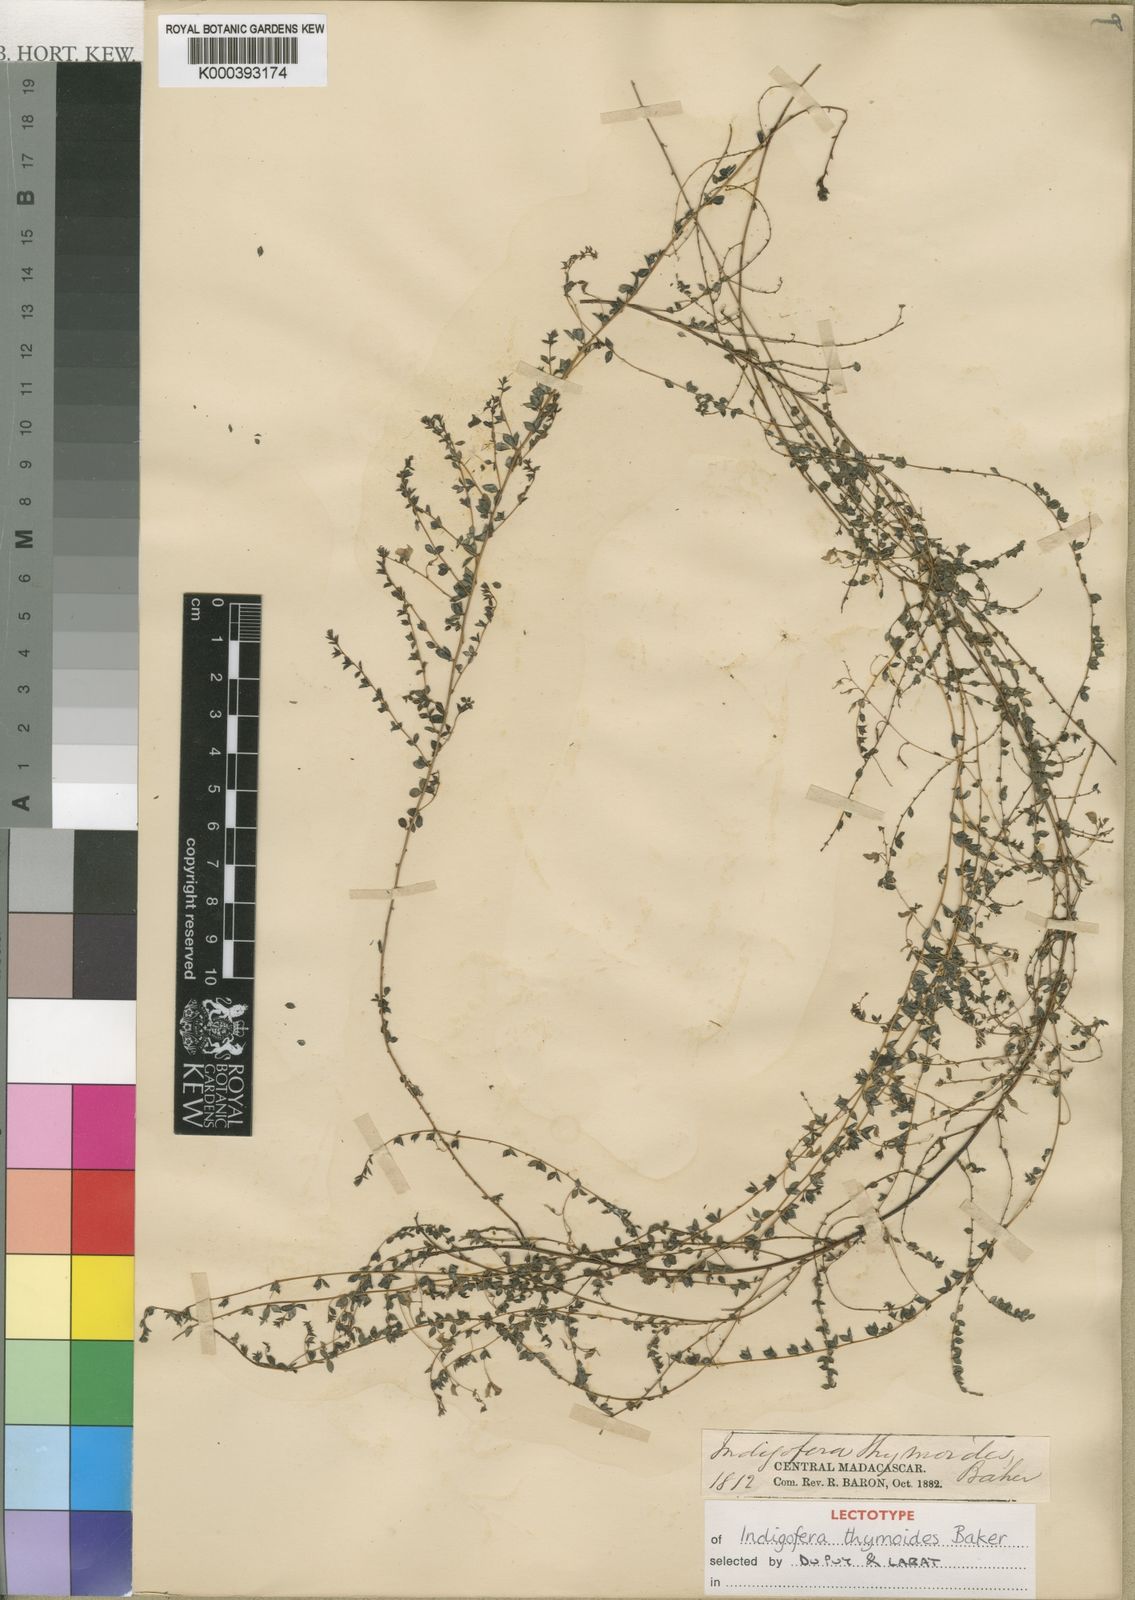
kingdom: Plantae
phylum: Tracheophyta
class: Magnoliopsida
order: Fabales
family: Fabaceae
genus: Indigofera
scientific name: Indigofera thymoides
